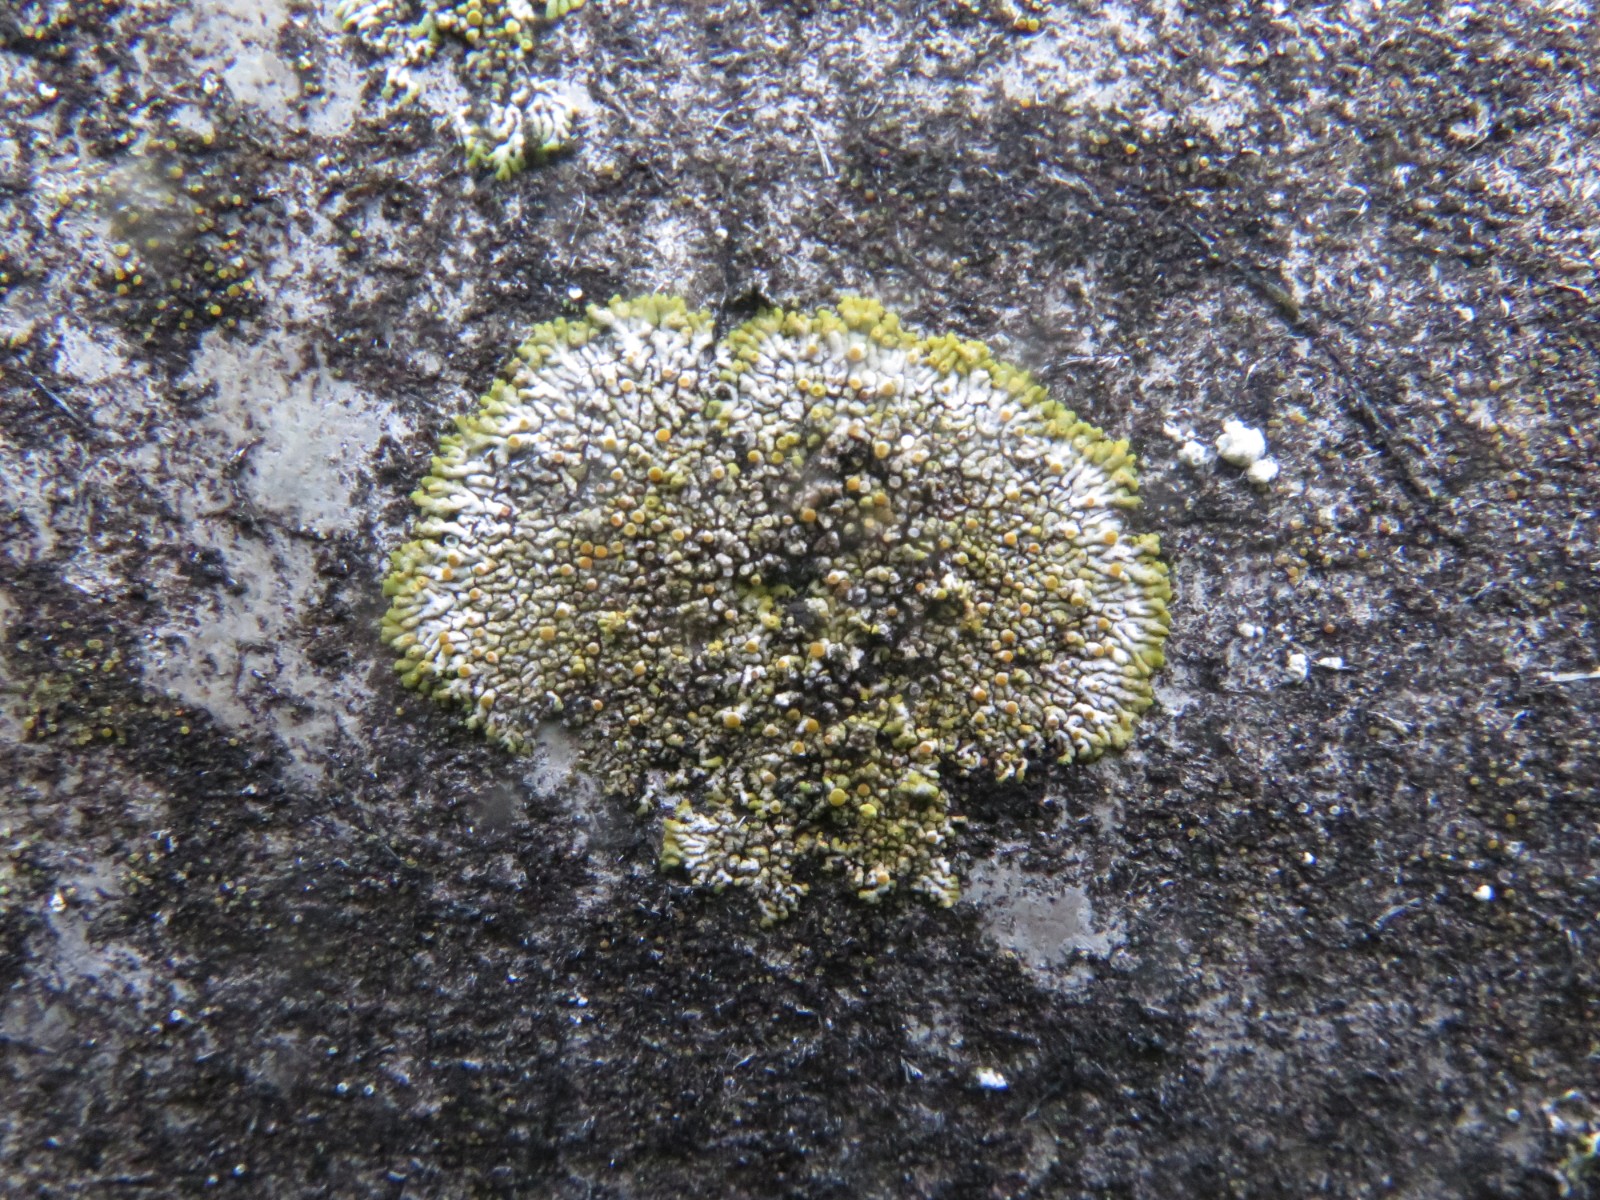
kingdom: Fungi
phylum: Ascomycota
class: Lecanoromycetes
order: Teloschistales
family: Teloschistaceae
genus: Calogaya
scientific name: Calogaya pusilla
